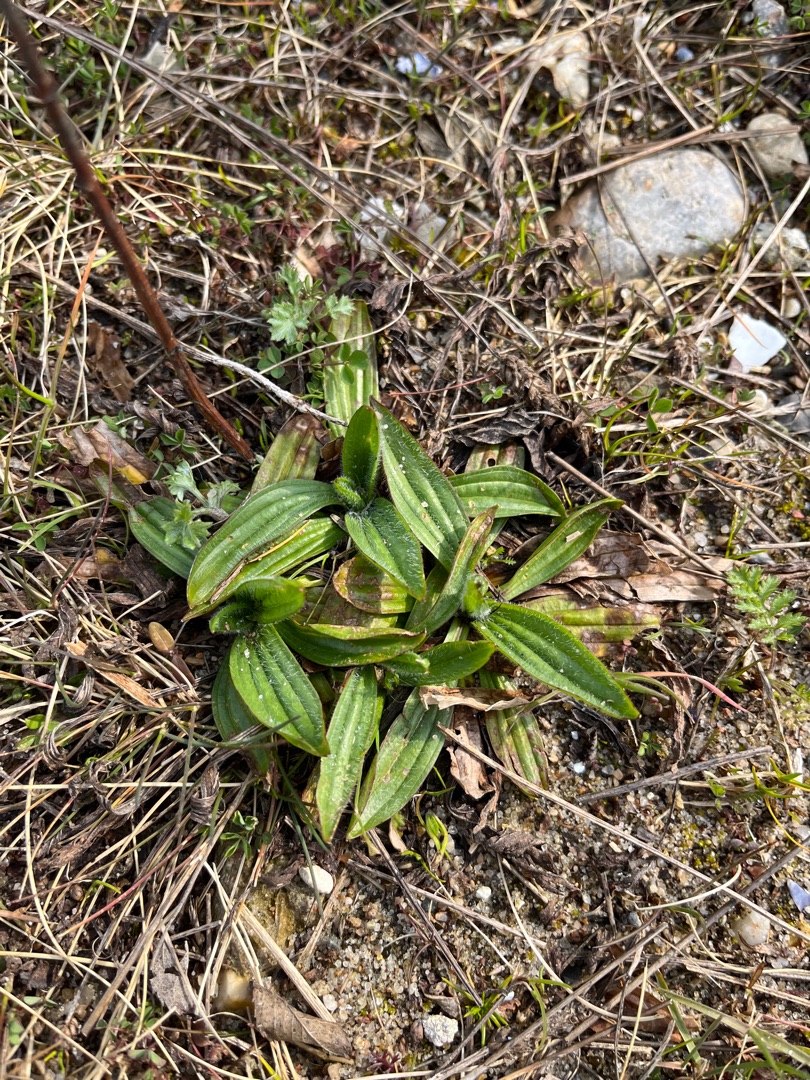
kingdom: Plantae
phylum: Tracheophyta
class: Magnoliopsida
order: Lamiales
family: Plantaginaceae
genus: Plantago
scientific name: Plantago lanceolata
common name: Lancet-vejbred
